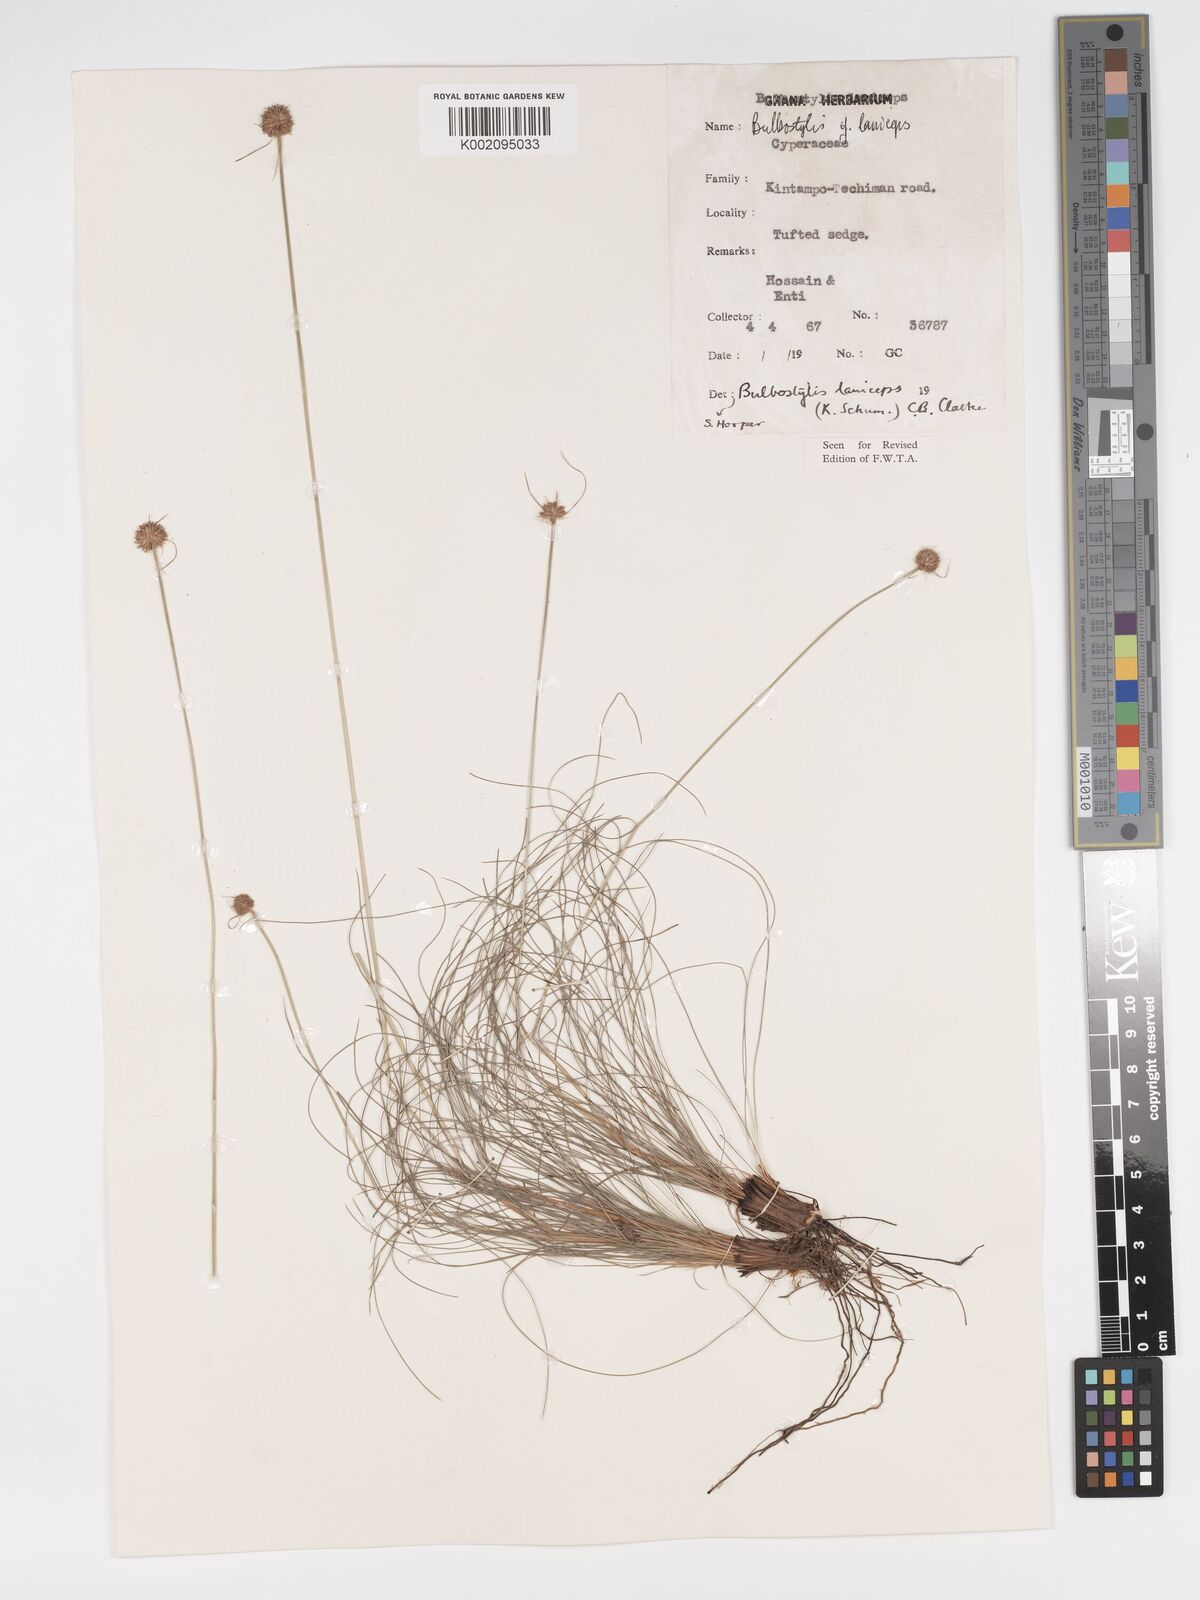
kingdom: Plantae
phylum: Tracheophyta
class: Liliopsida
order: Poales
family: Cyperaceae
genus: Bulbostylis
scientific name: Bulbostylis laniceps
